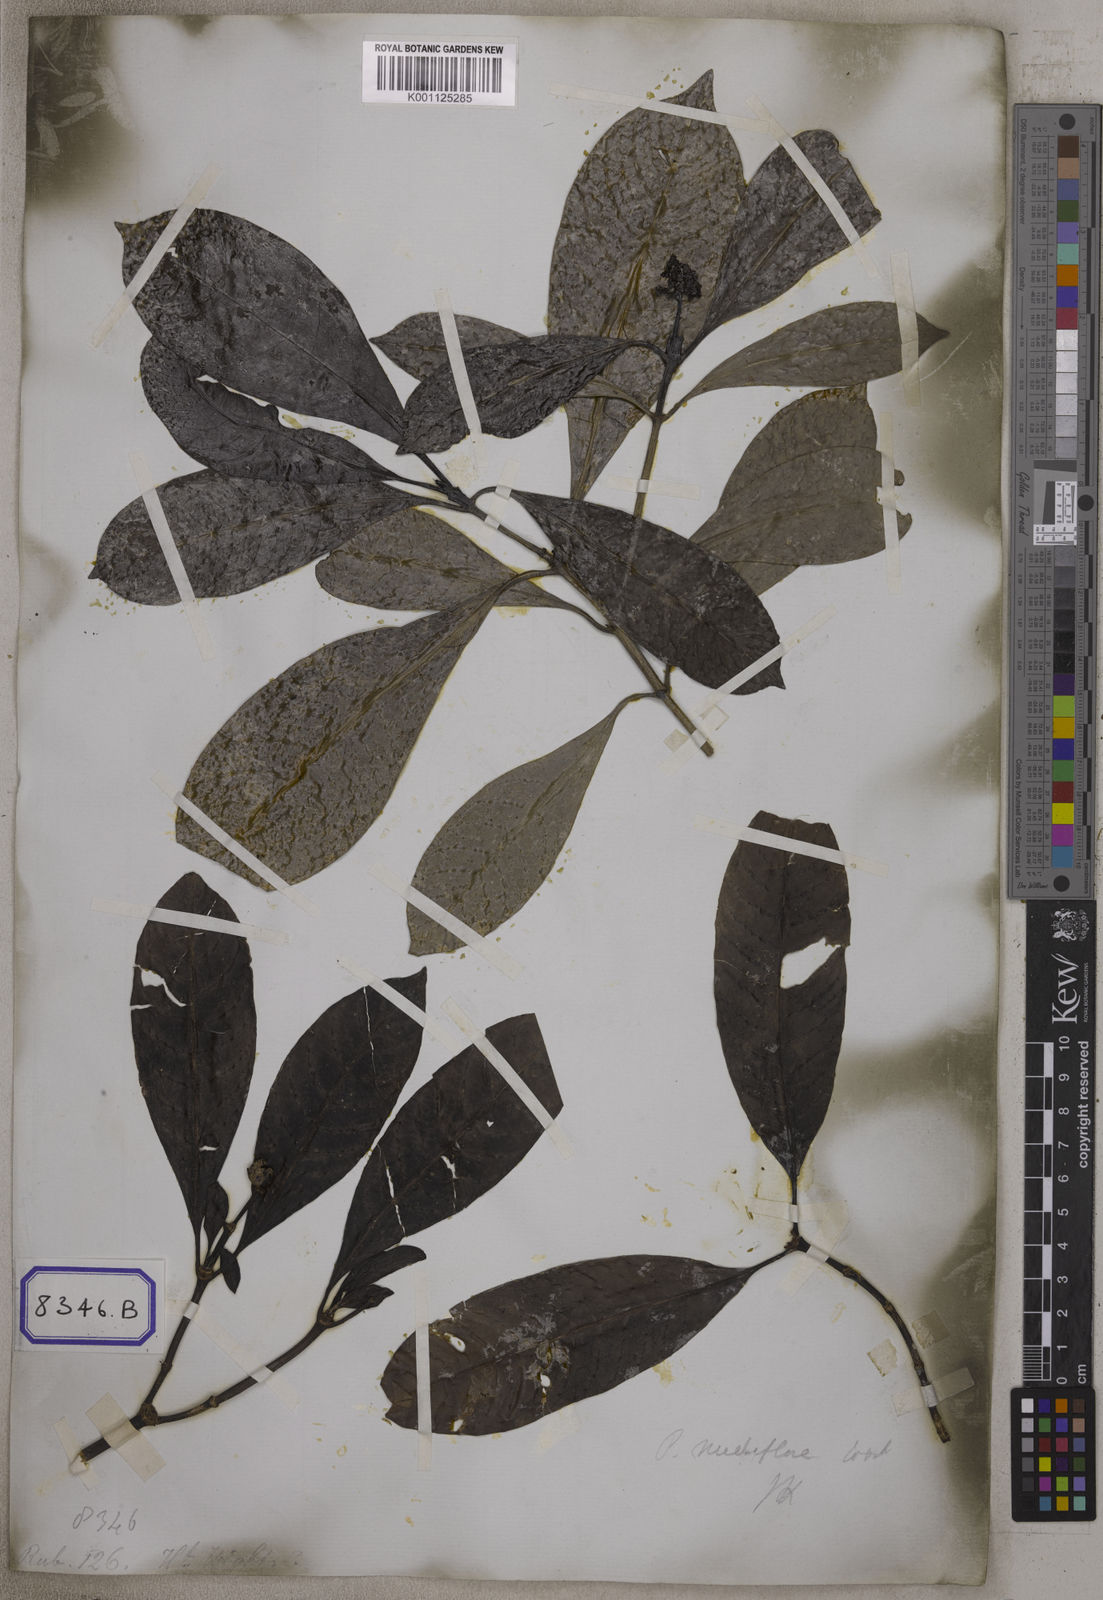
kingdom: Plantae
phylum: Tracheophyta
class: Magnoliopsida
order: Gentianales
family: Rubiaceae
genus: Psychotria
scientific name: Psychotria
